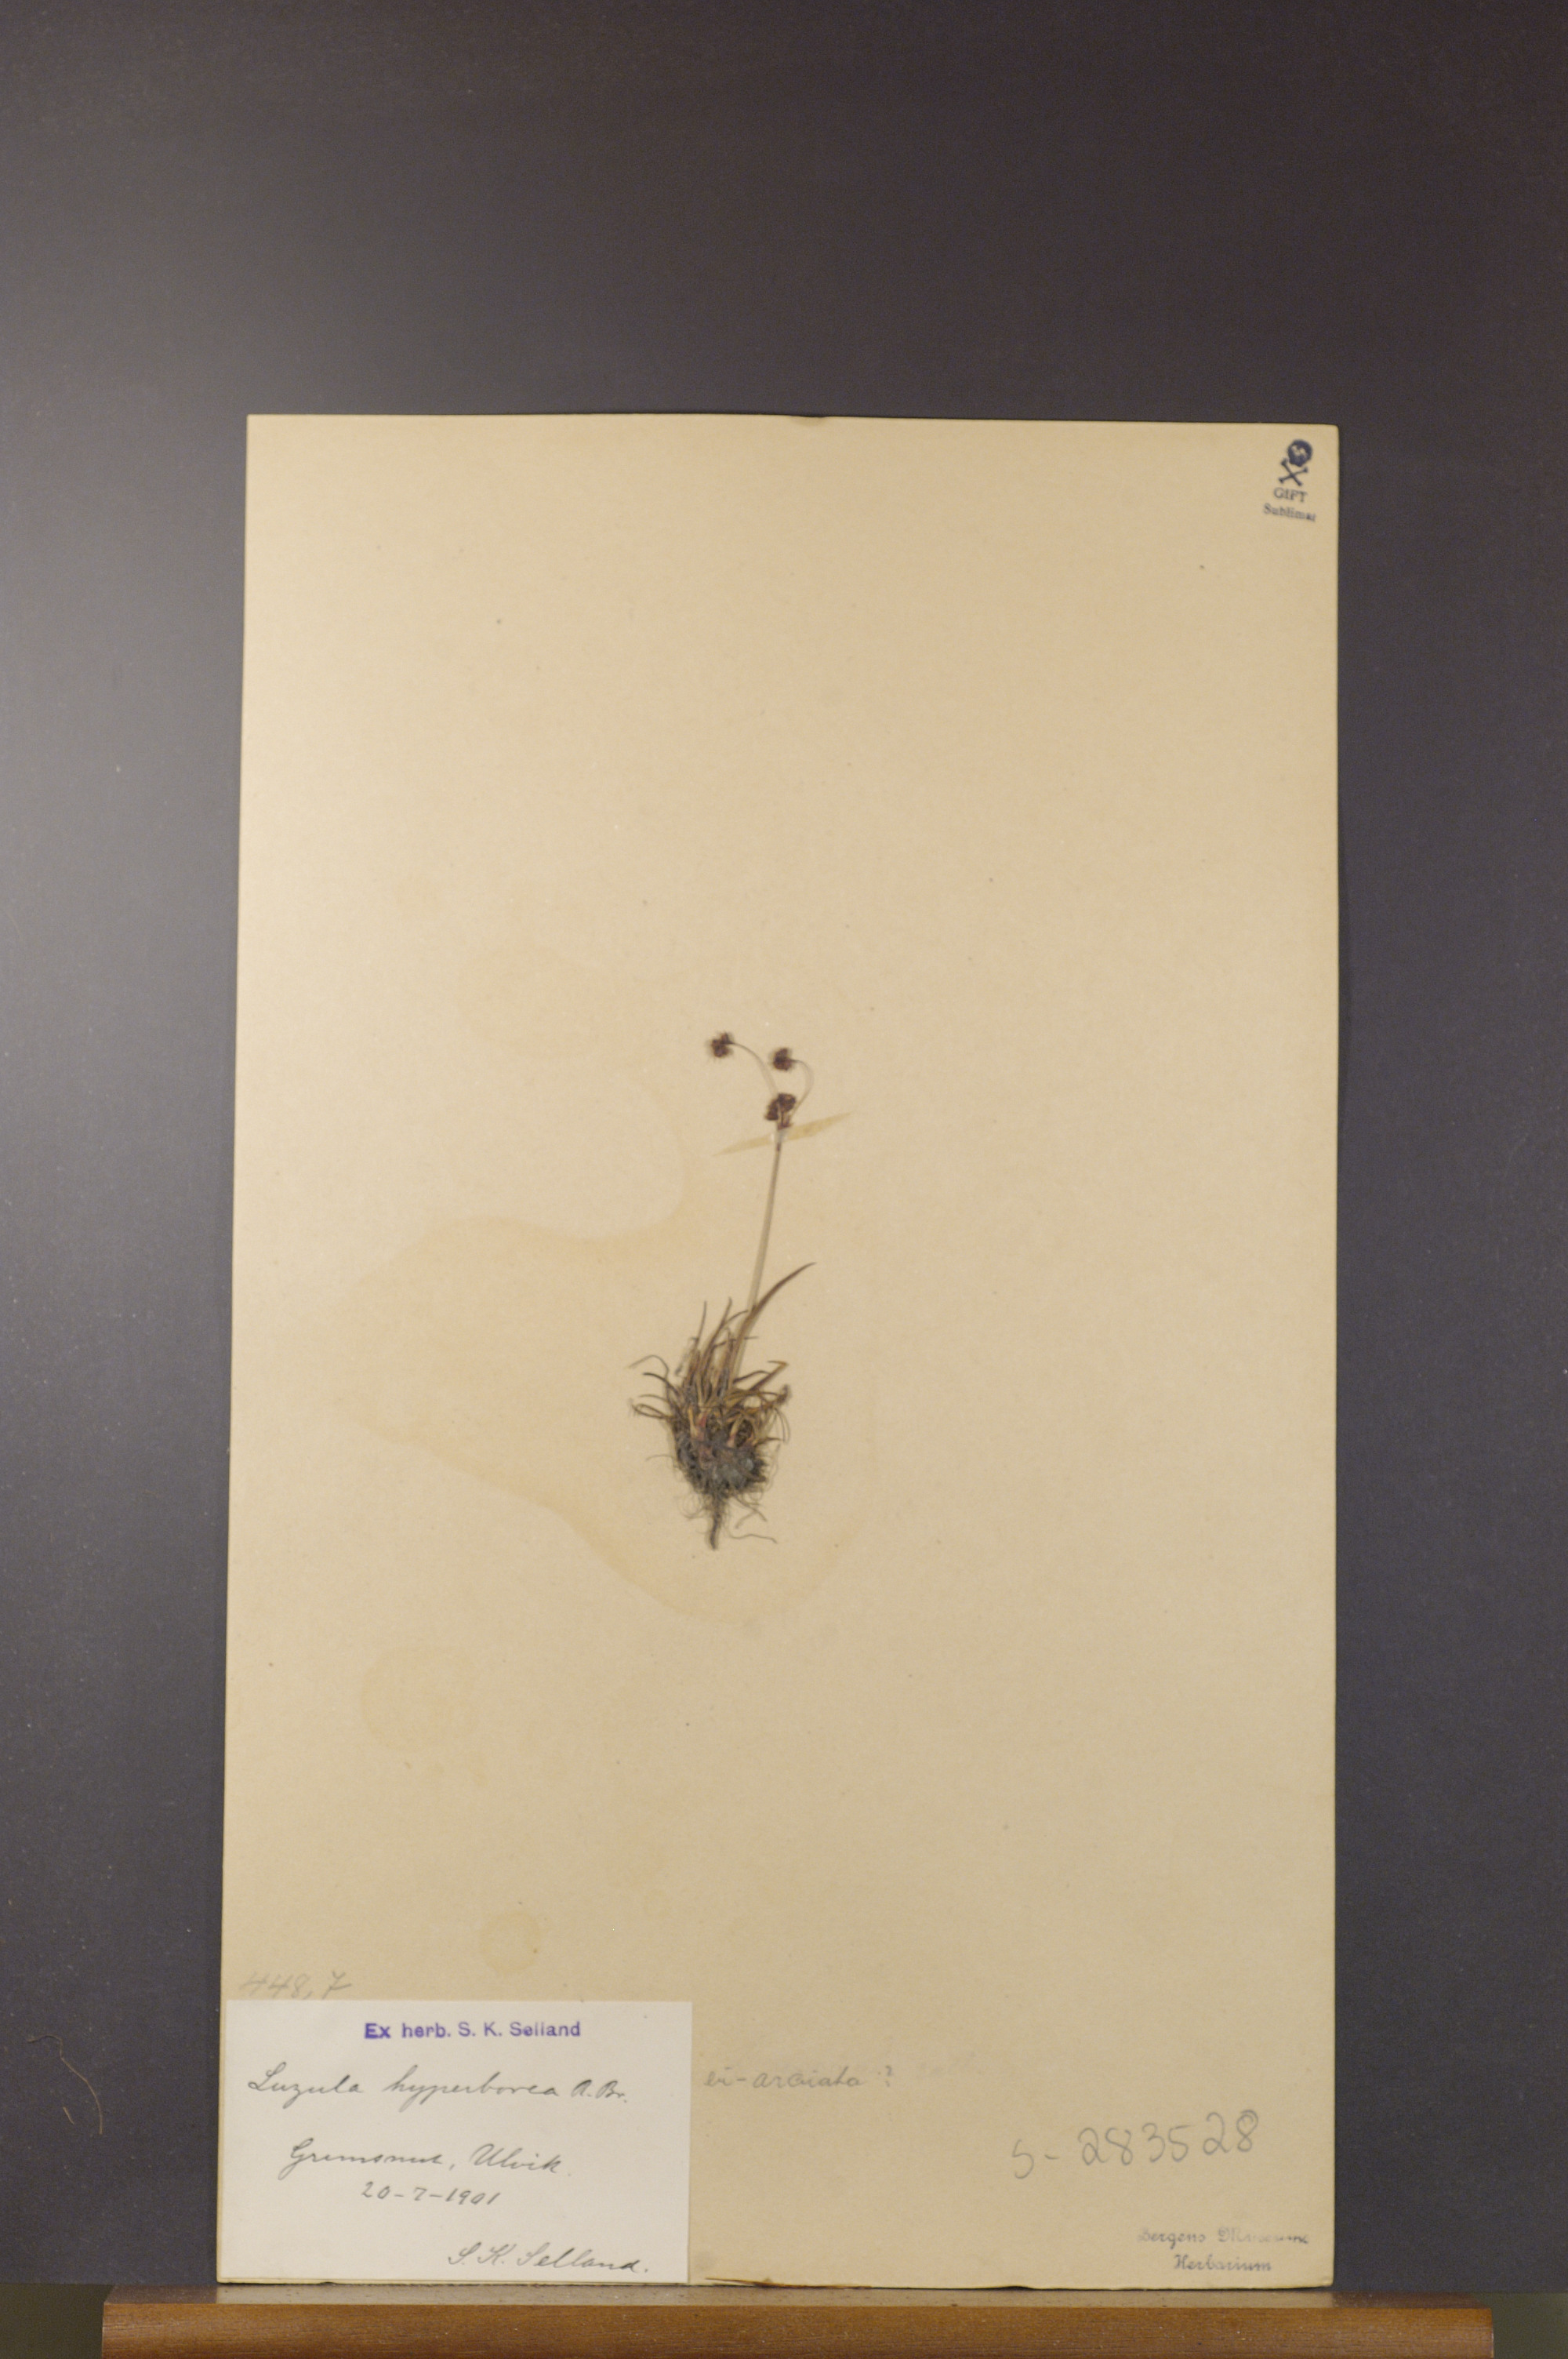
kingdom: Plantae
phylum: Tracheophyta
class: Liliopsida
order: Poales
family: Juncaceae
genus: Luzula
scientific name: Luzula nivalis
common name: Arctic woodrush
